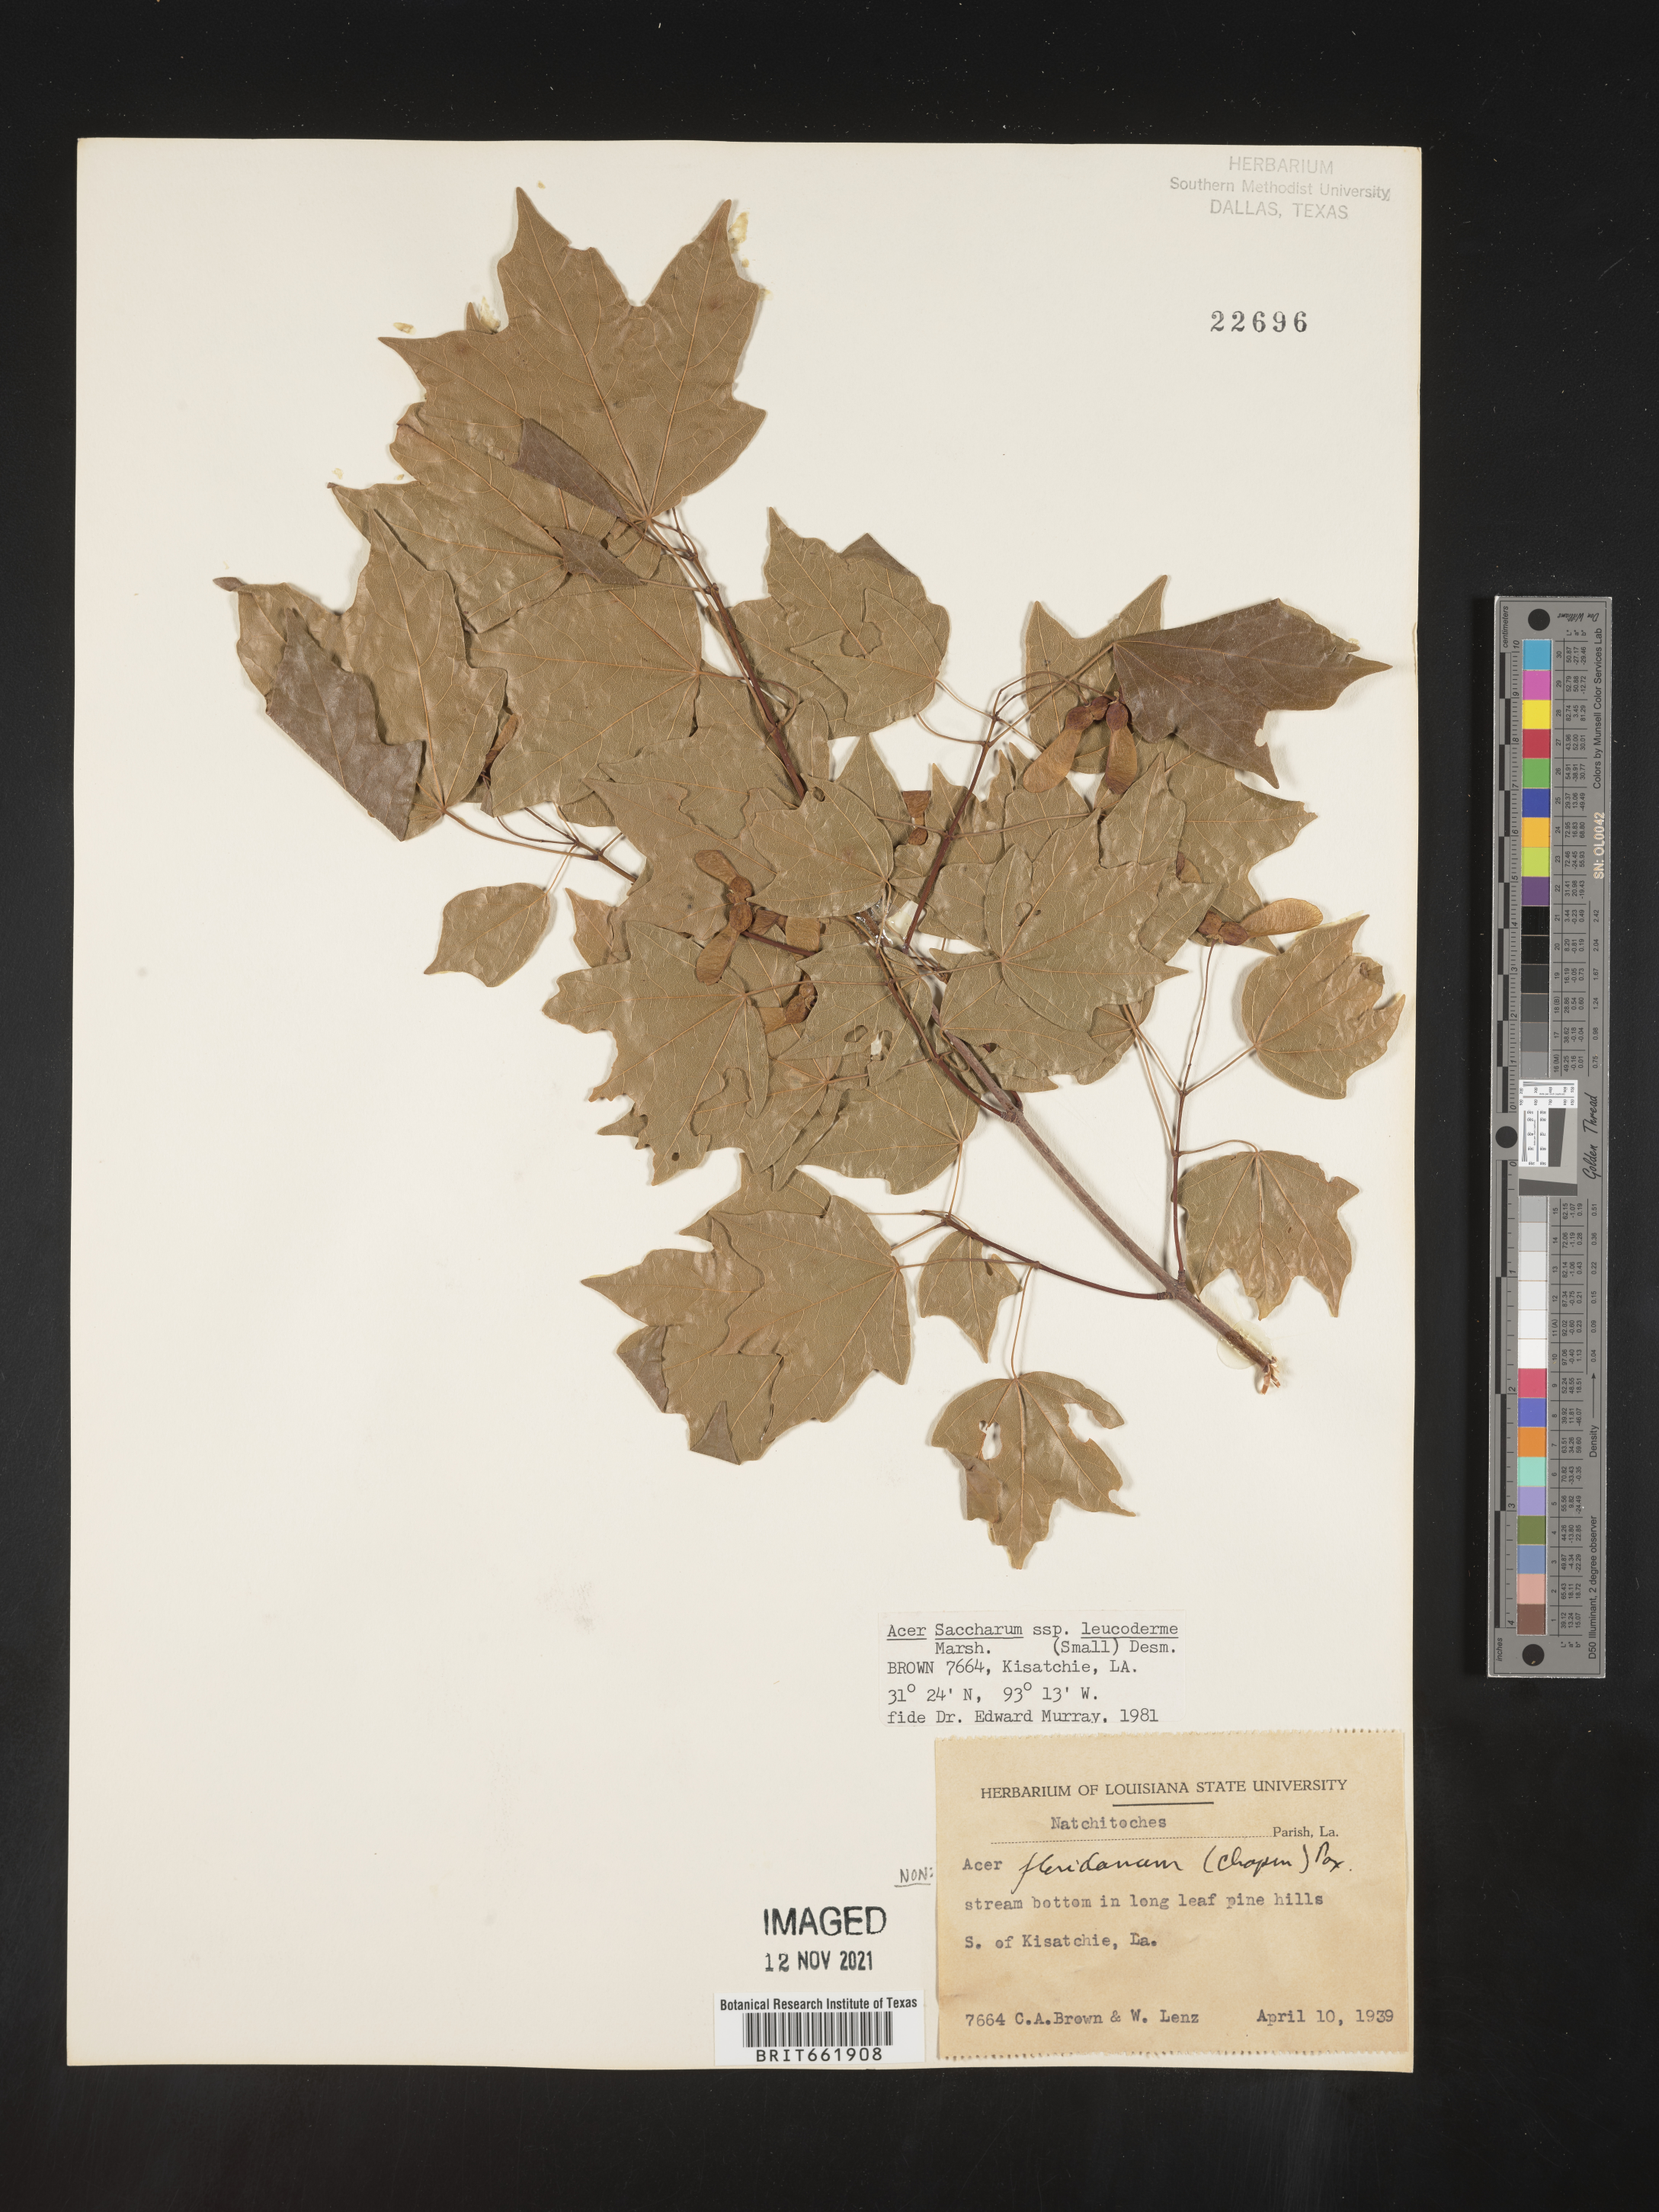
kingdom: Plantae
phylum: Tracheophyta
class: Magnoliopsida
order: Sapindales
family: Sapindaceae
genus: Acer
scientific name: Acer leucoderme
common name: Chalk maple
